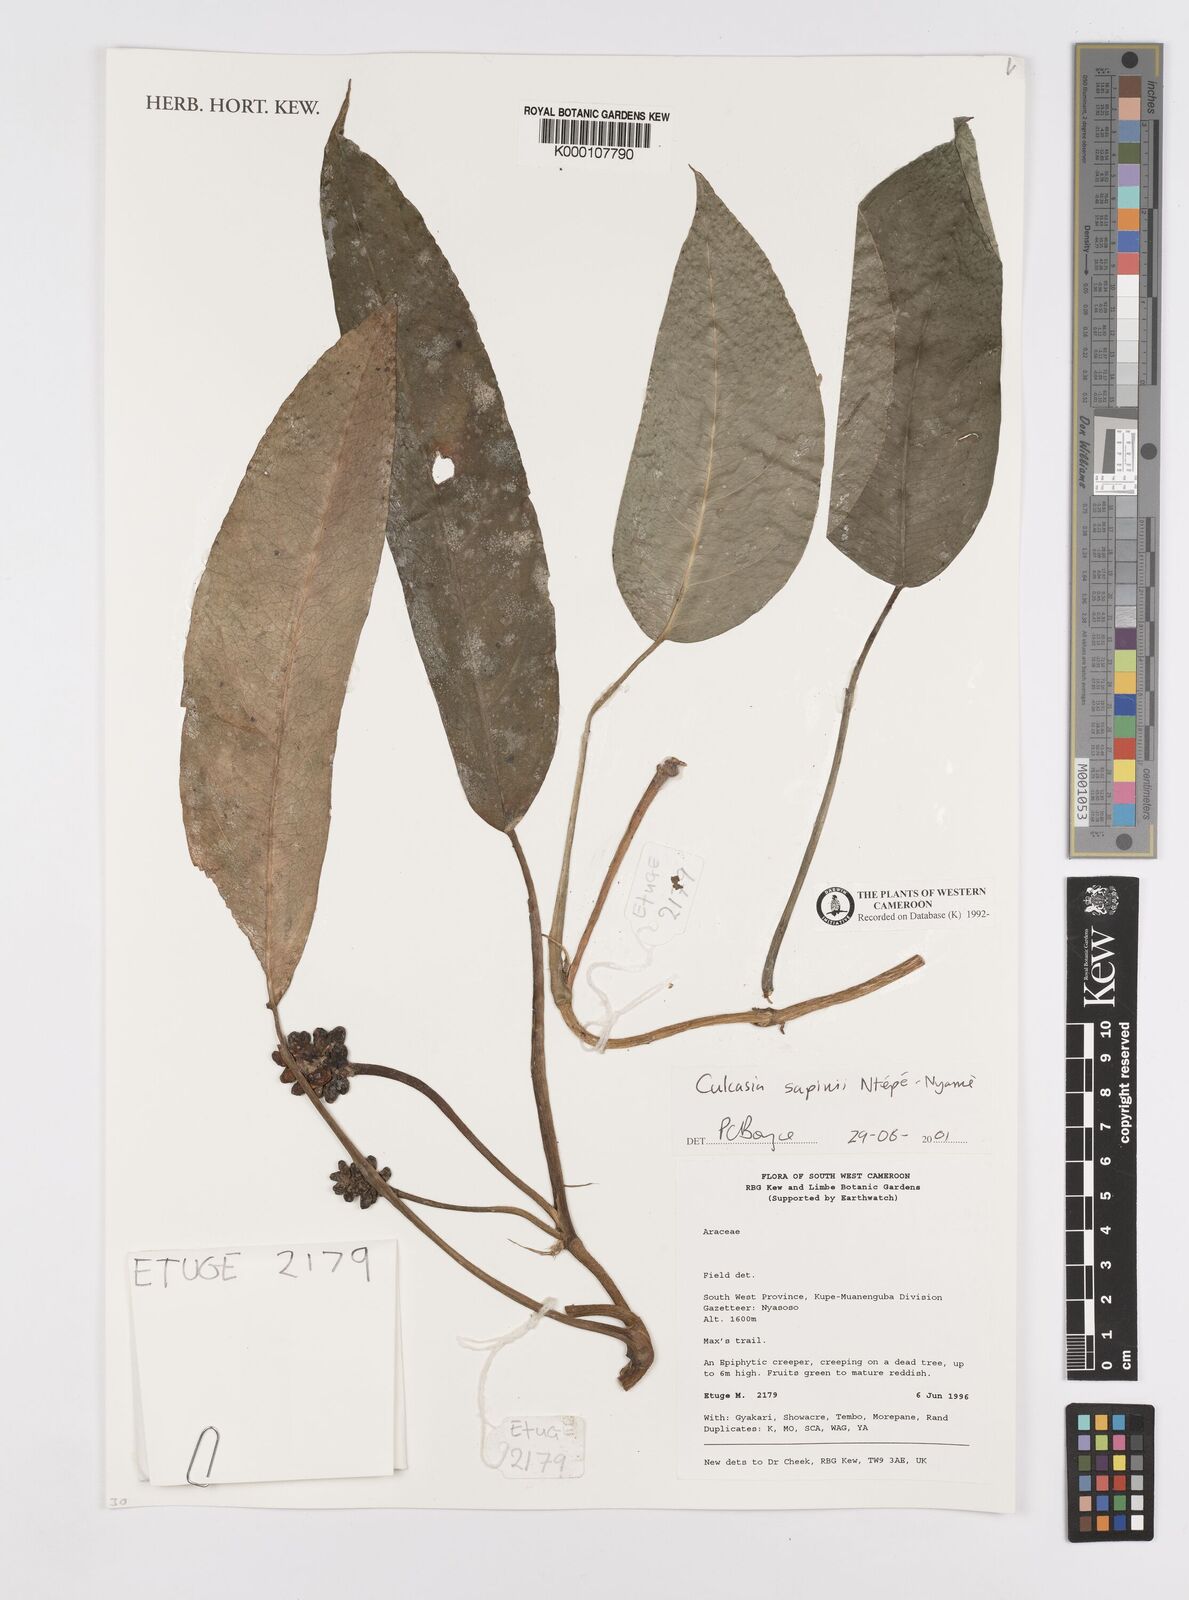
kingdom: Plantae
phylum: Tracheophyta
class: Liliopsida
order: Alismatales
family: Araceae
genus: Culcasia
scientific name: Culcasia seretii
